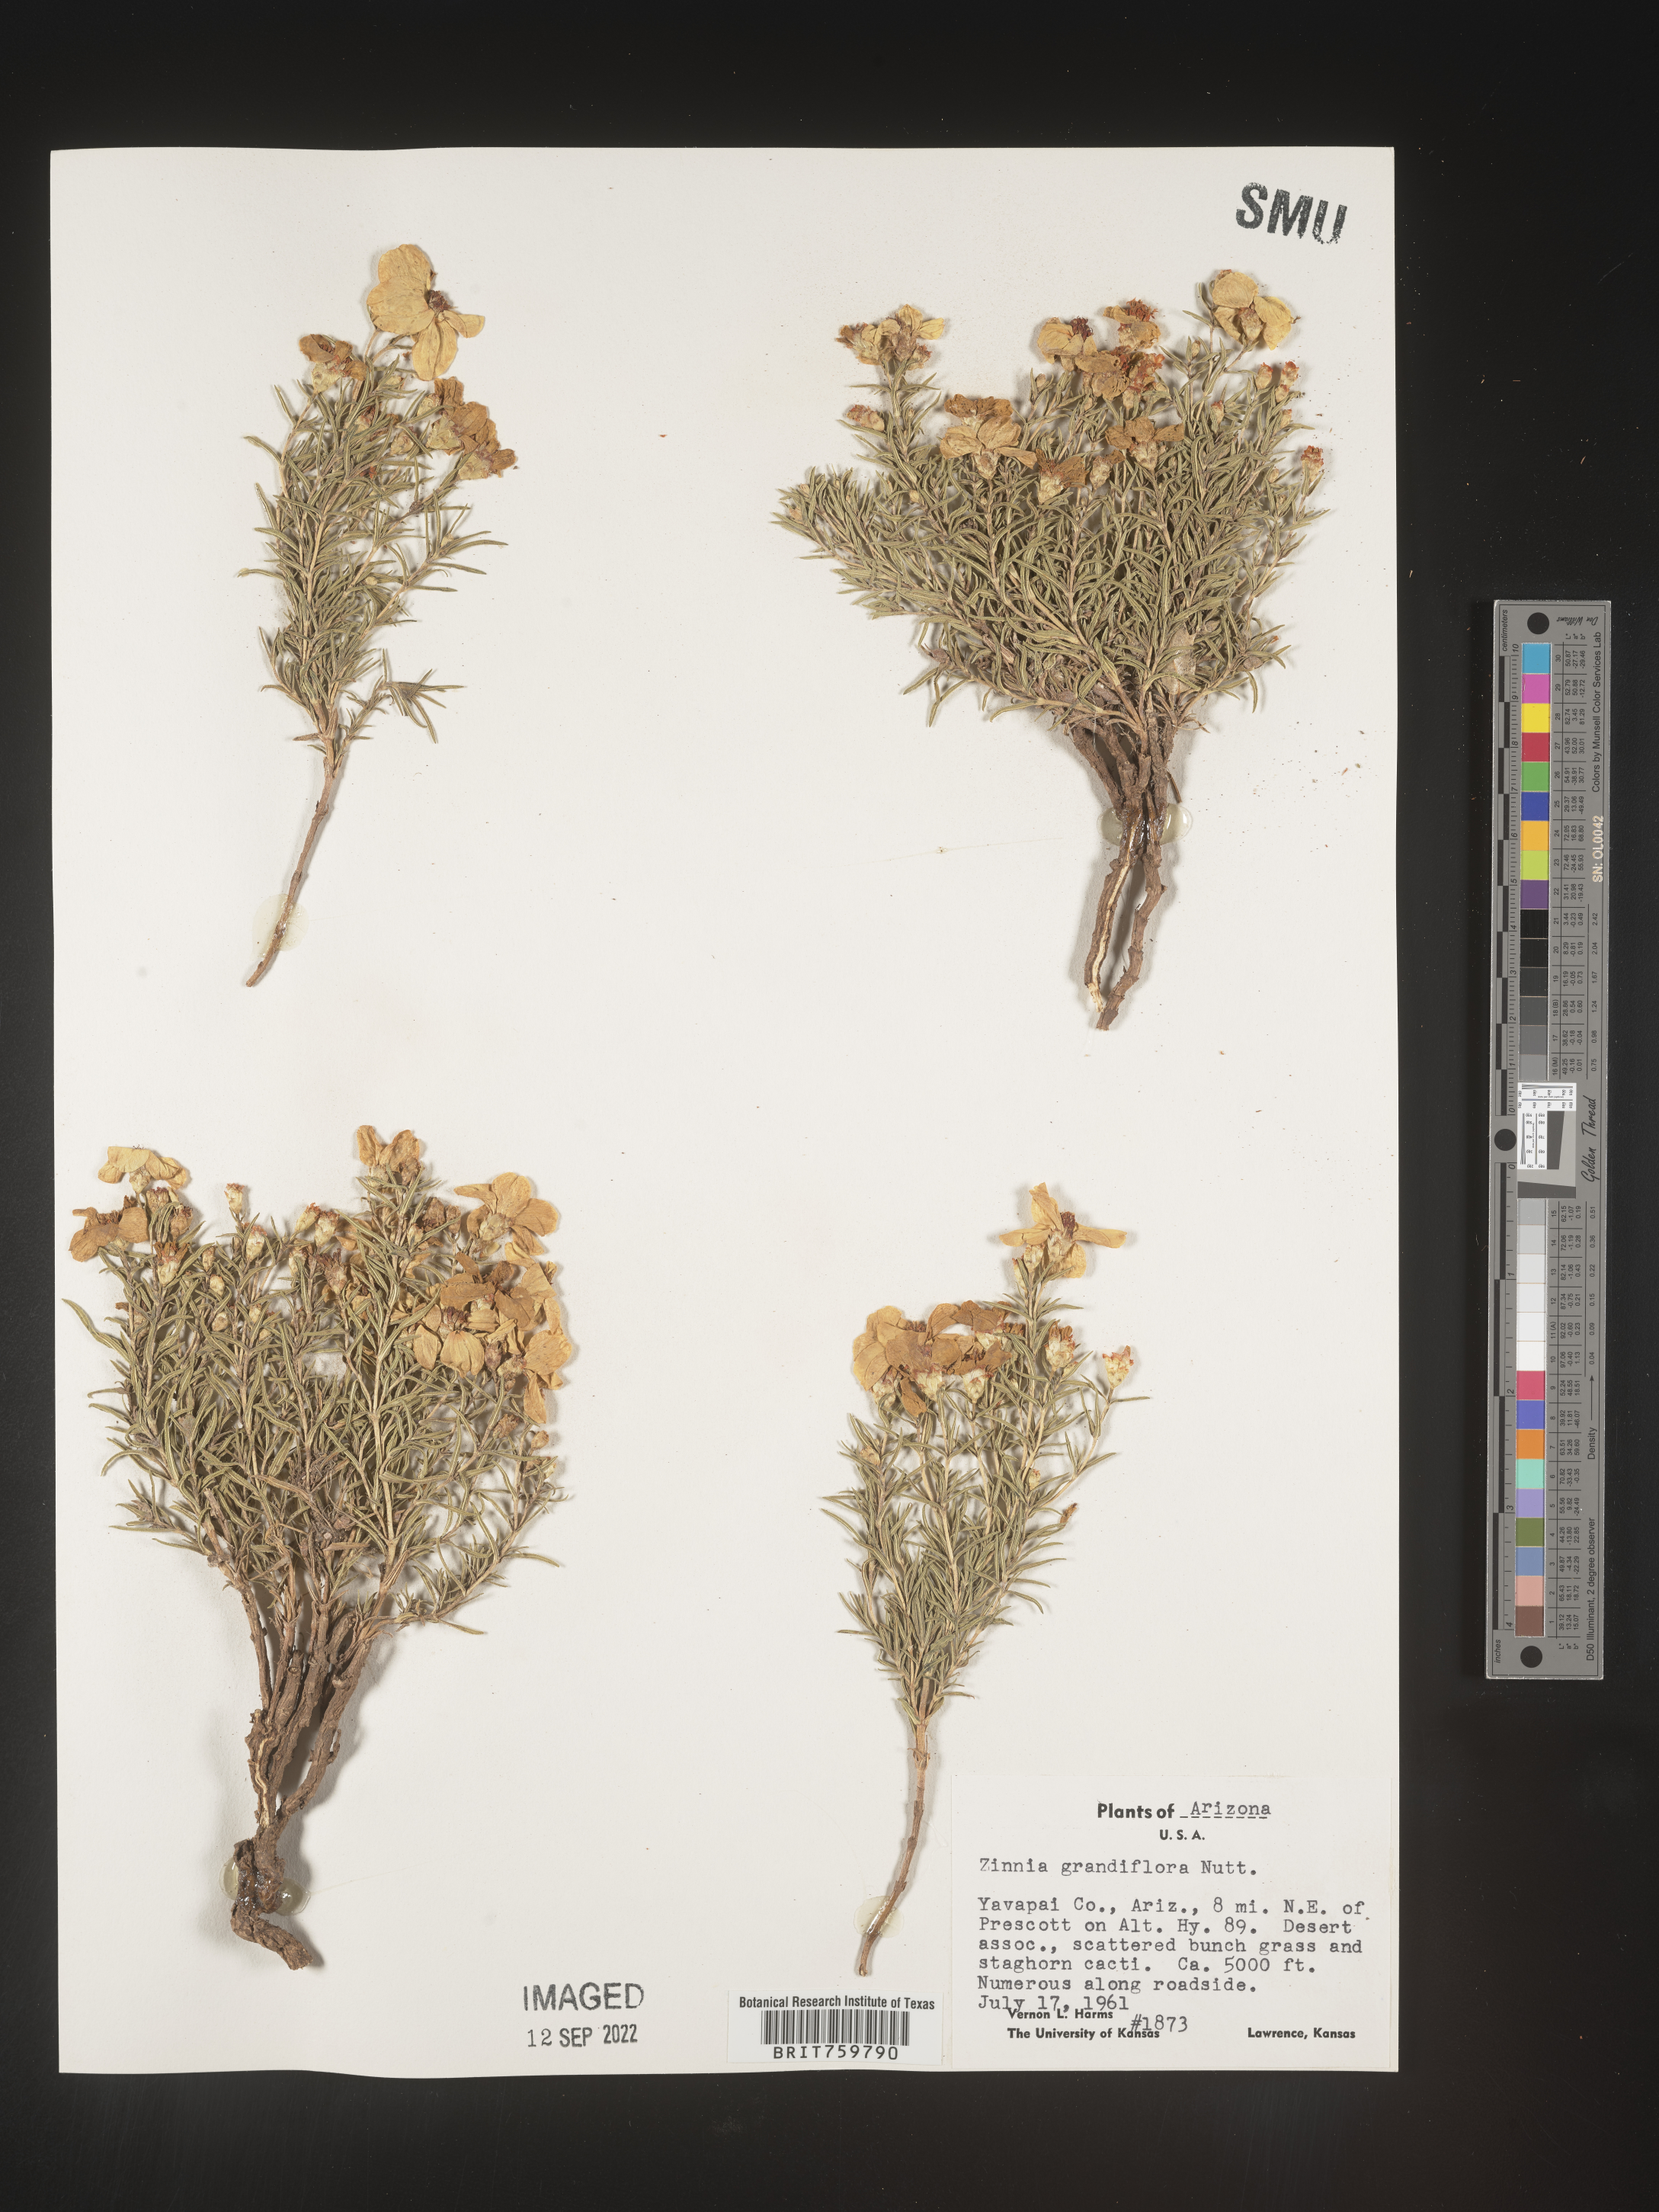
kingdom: Plantae
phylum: Tracheophyta
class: Magnoliopsida
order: Asterales
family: Asteraceae
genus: Zinnia
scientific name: Zinnia grandiflora
